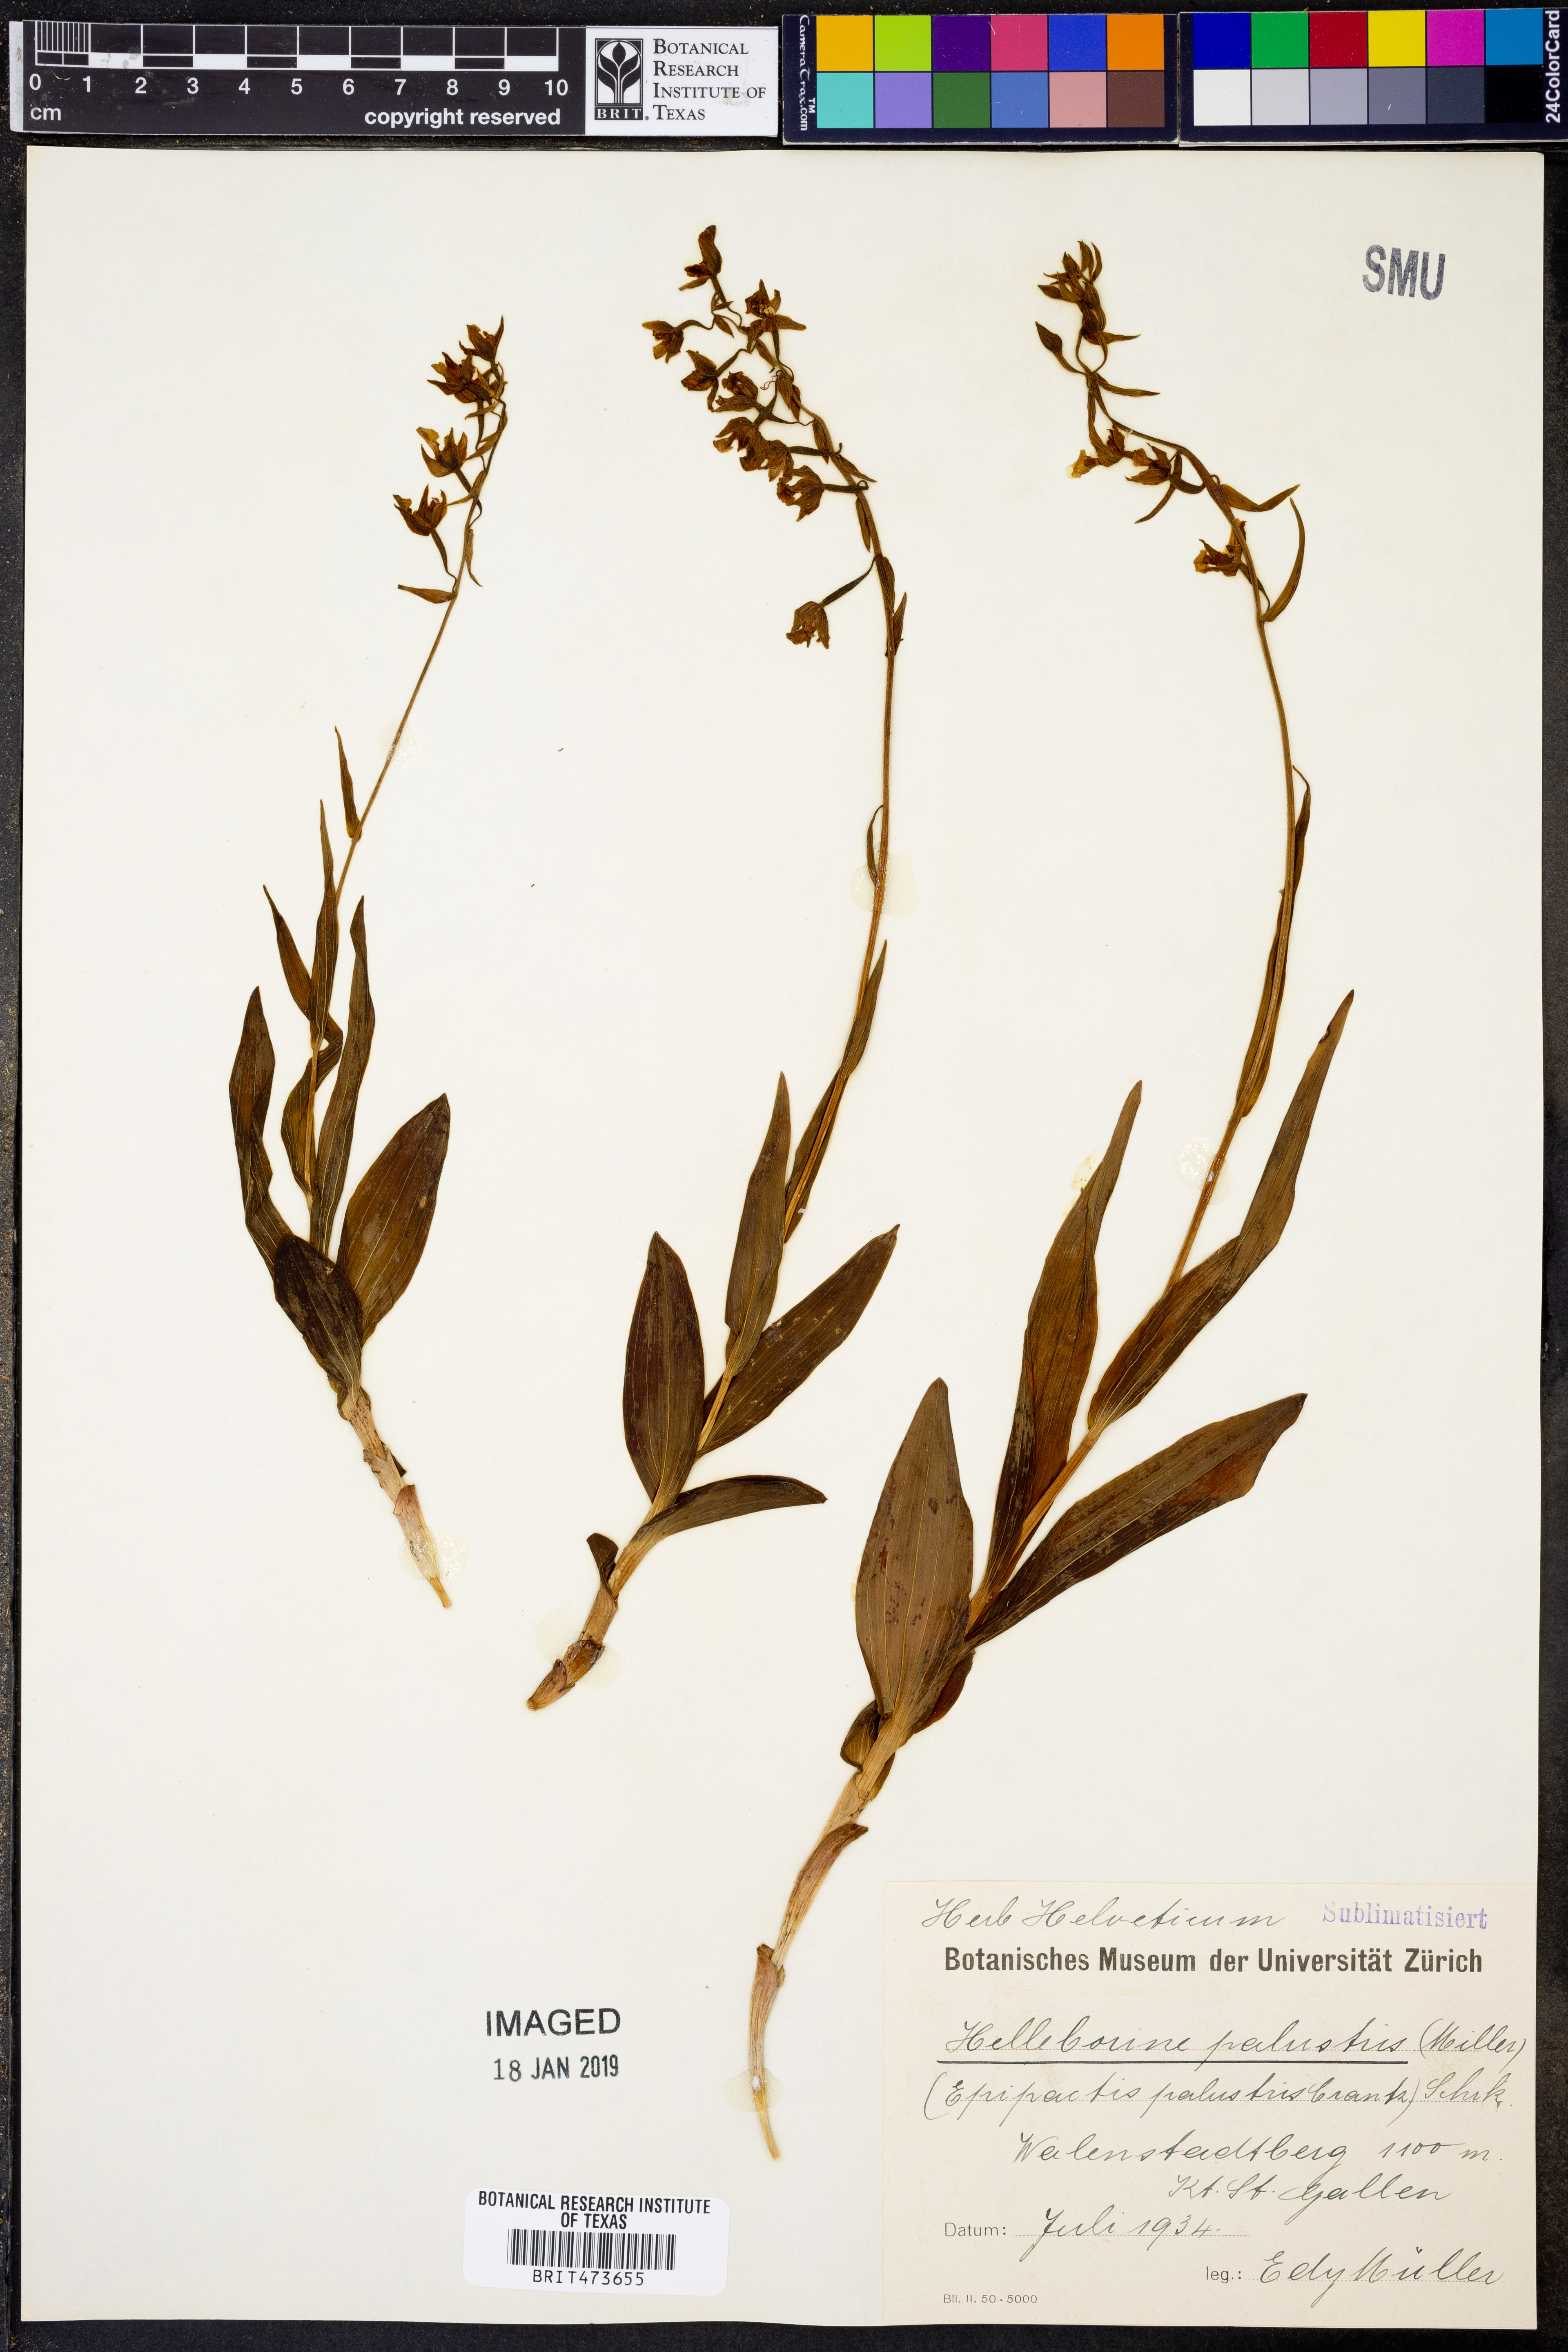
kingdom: Plantae
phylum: Tracheophyta
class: Liliopsida
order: Asparagales
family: Orchidaceae
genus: Epipactis
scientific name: Epipactis palustris
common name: Marsh helleborine
